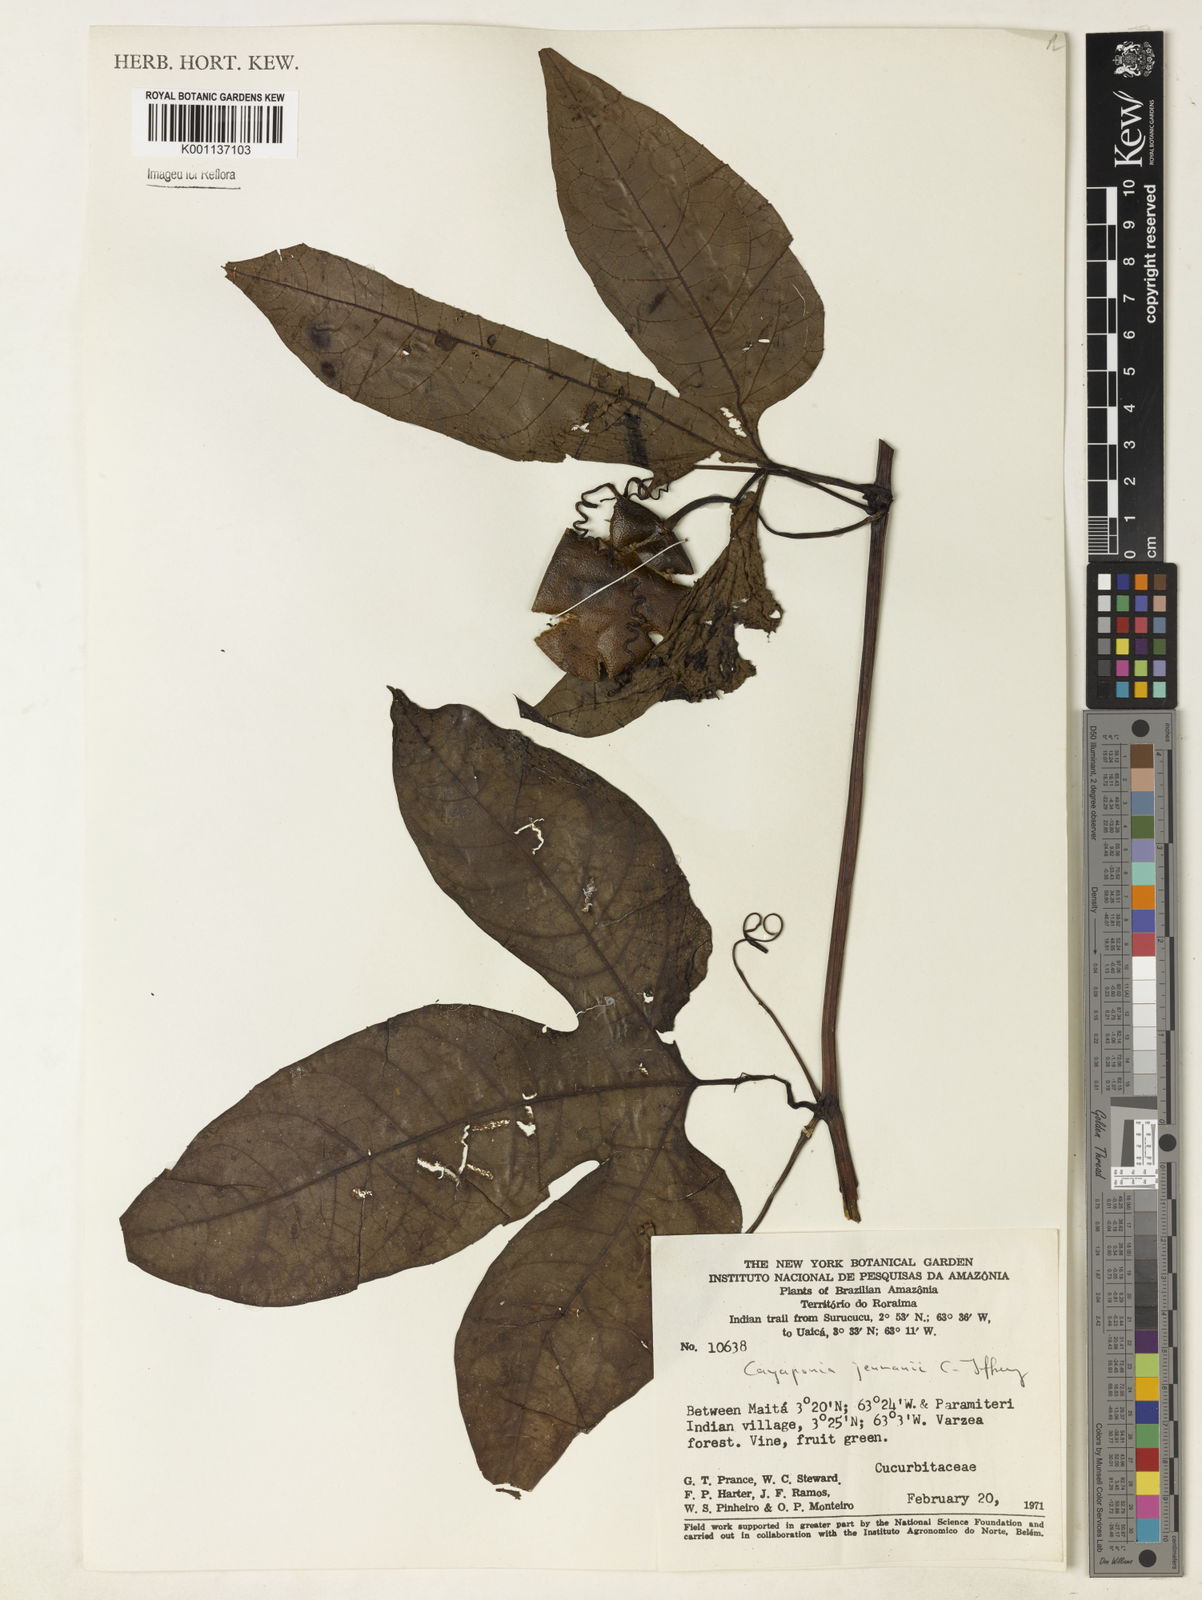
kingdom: Plantae
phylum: Tracheophyta
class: Magnoliopsida
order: Cucurbitales
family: Cucurbitaceae
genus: Cayaponia
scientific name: Cayaponia jenmanii
